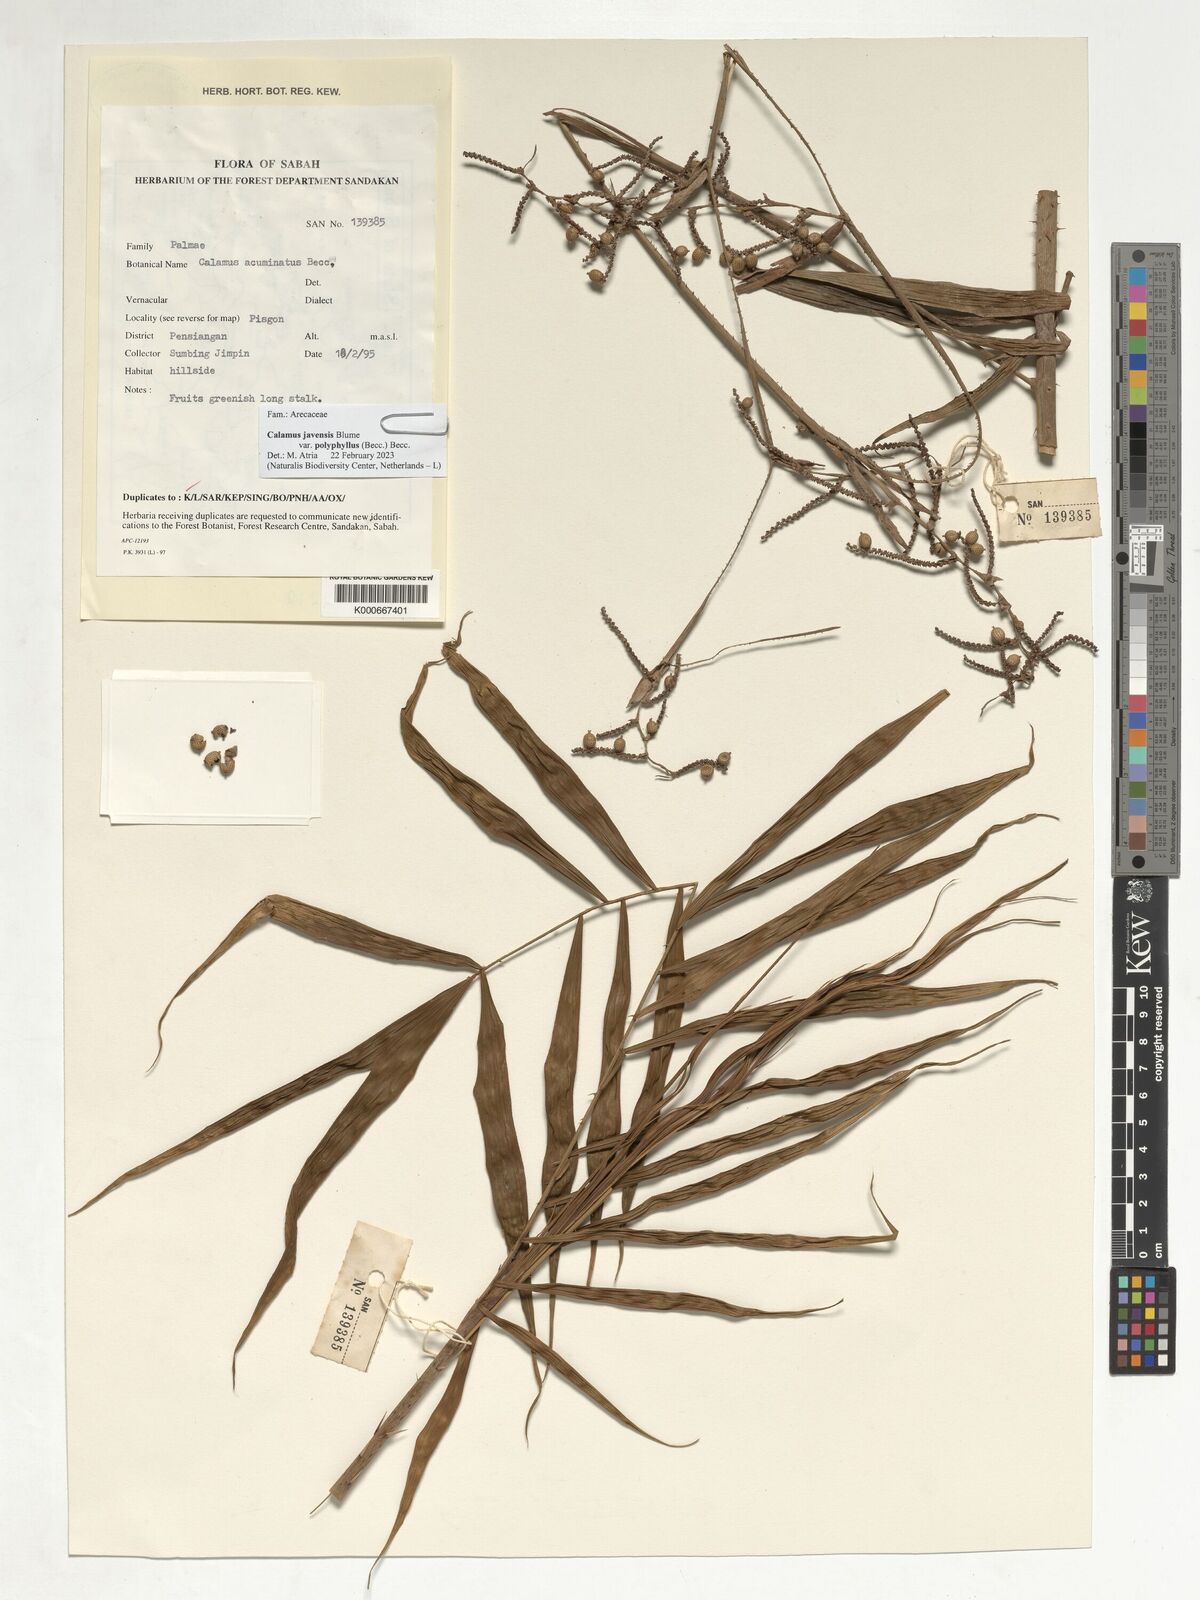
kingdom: Plantae
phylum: Tracheophyta
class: Liliopsida
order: Arecales
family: Arecaceae
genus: Calamus
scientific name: Calamus javensis
